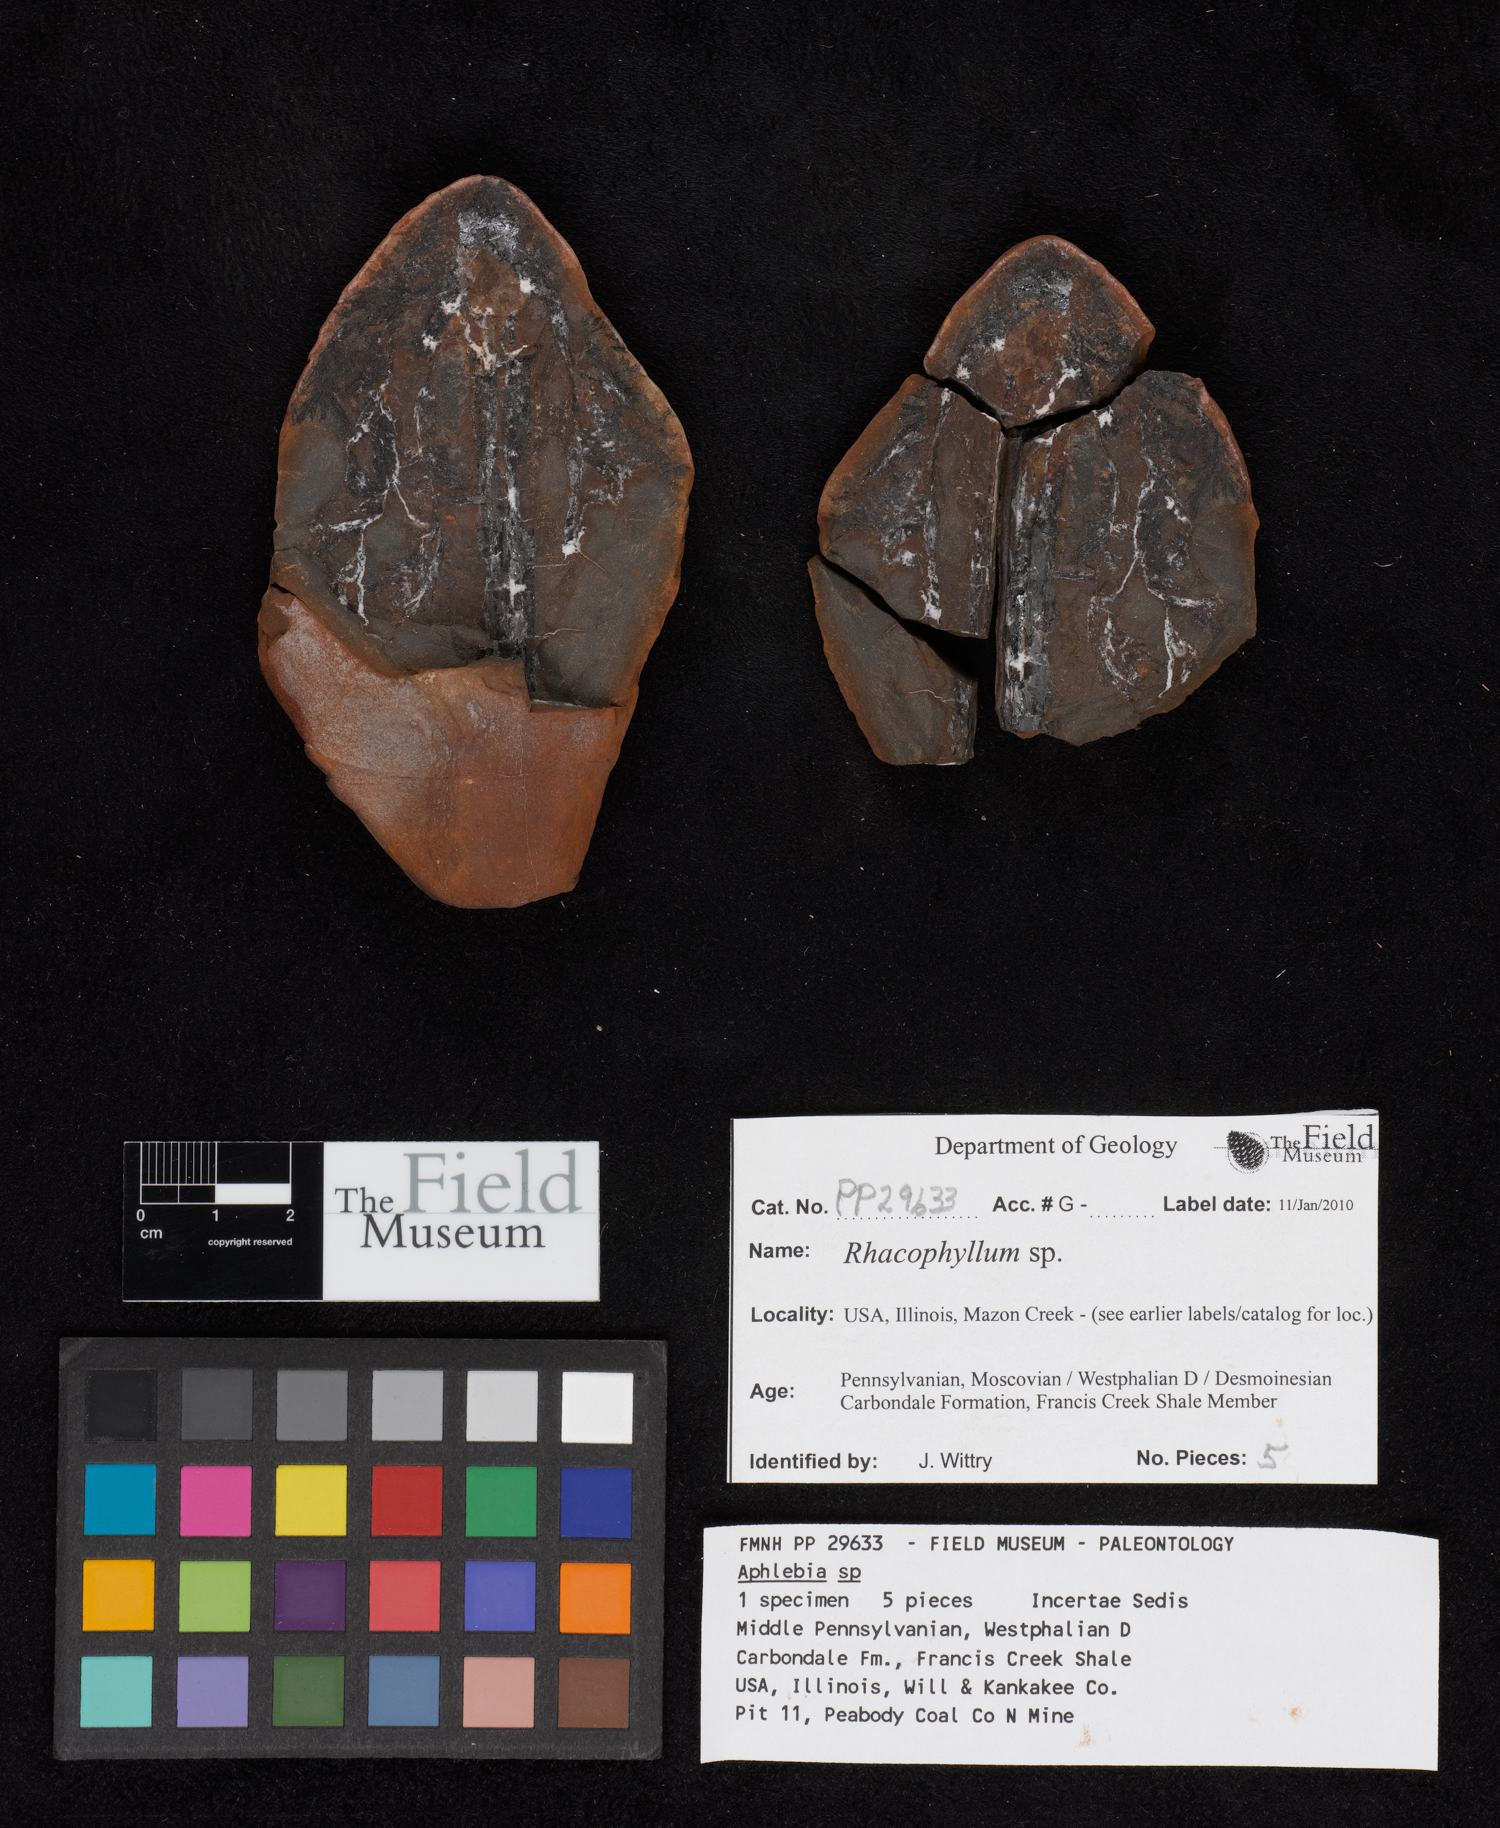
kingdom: Plantae
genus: Rhacophyllum
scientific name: Rhacophyllum
